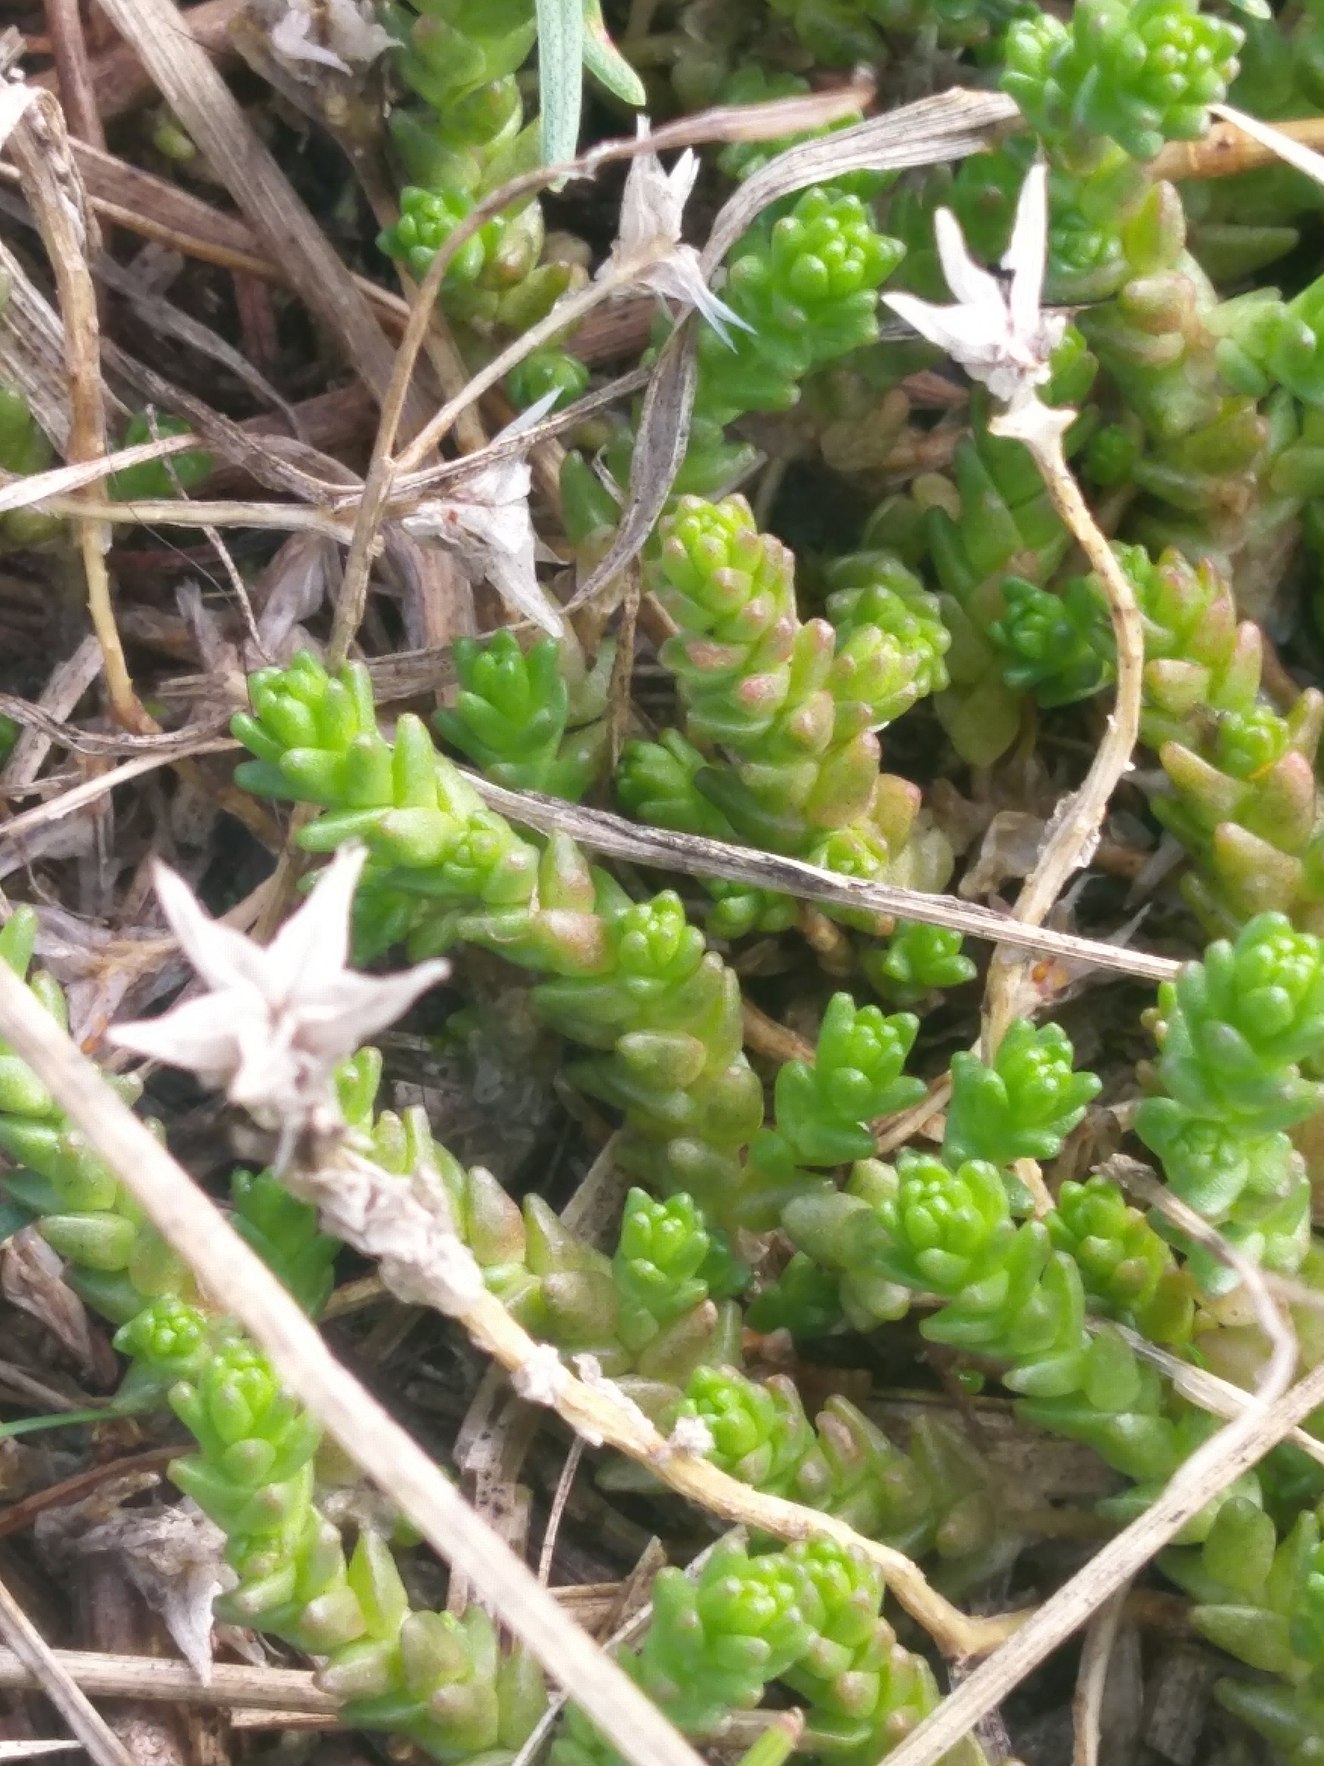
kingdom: Plantae
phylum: Tracheophyta
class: Magnoliopsida
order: Saxifragales
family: Crassulaceae
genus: Sedum
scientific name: Sedum acre
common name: Bidende stenurt
